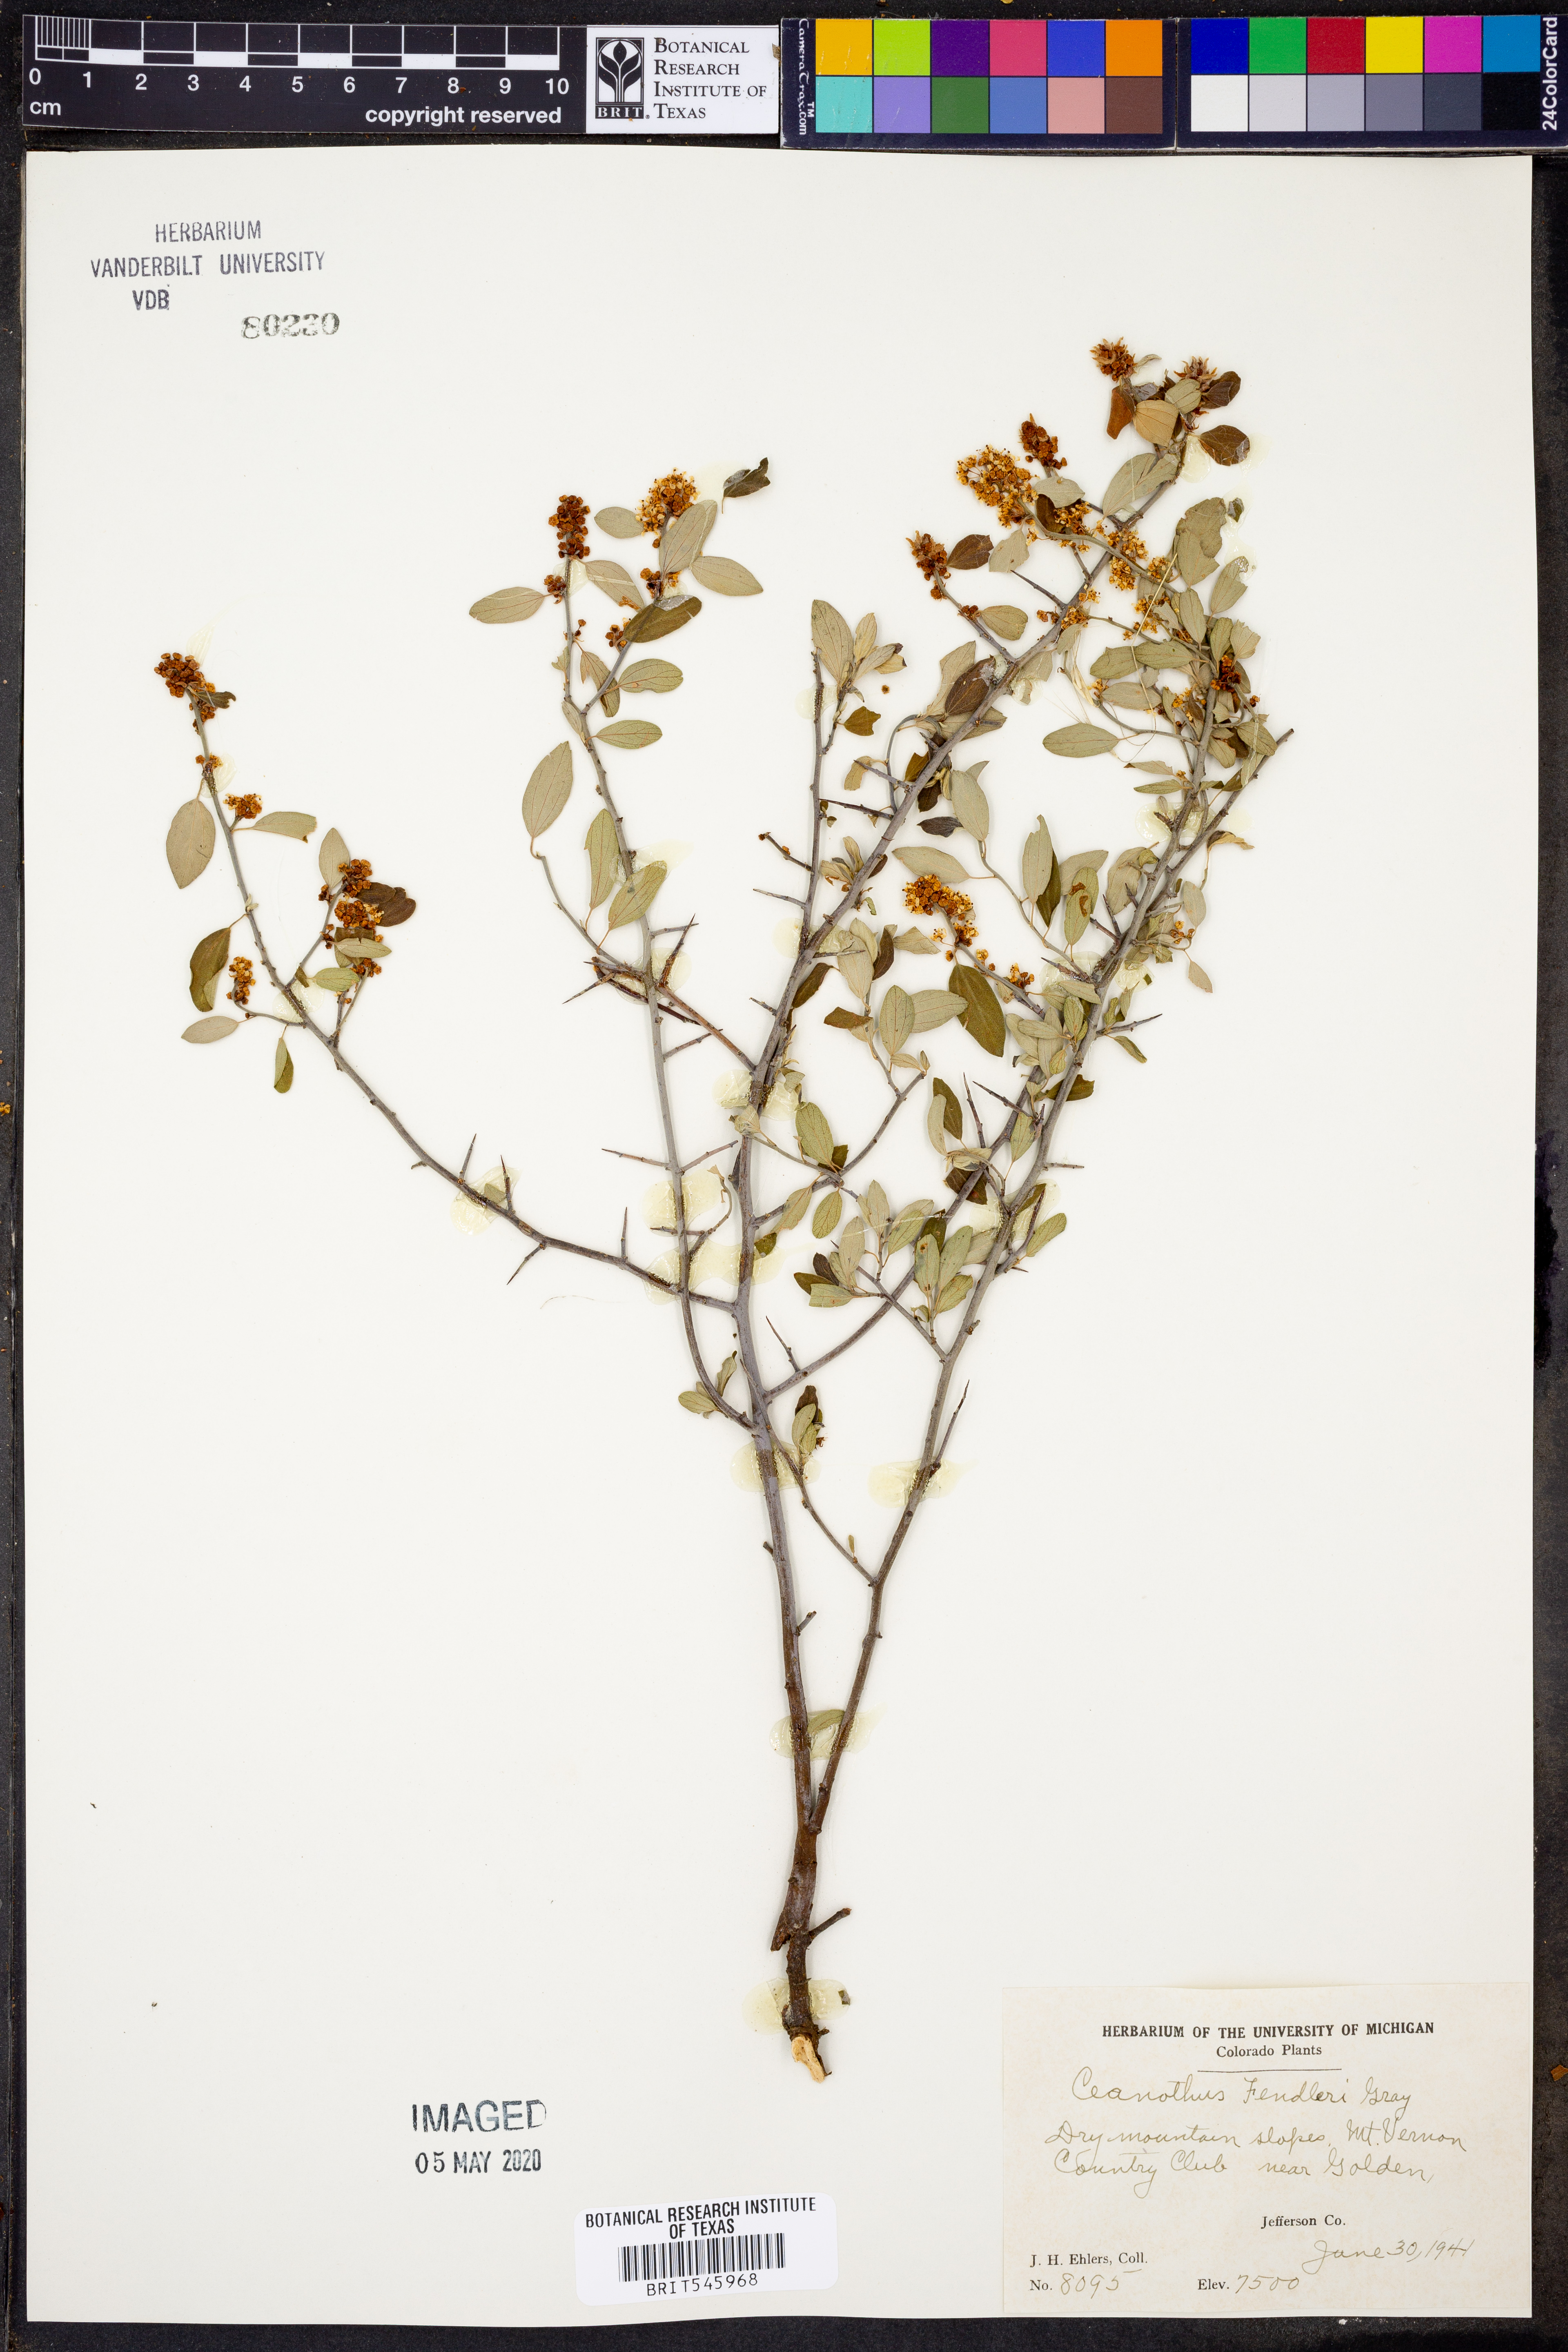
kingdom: Plantae
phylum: Tracheophyta
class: Magnoliopsida
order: Rosales
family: Rhamnaceae
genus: Ceanothus
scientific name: Ceanothus fendleri
